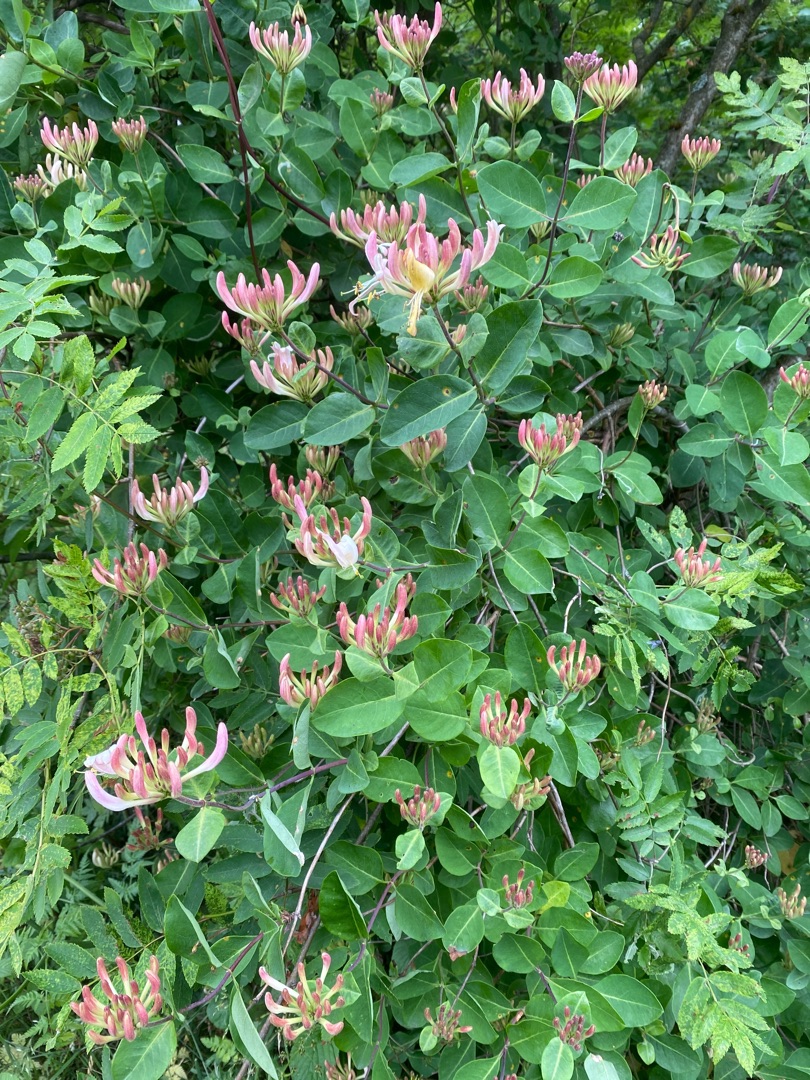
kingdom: Plantae
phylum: Tracheophyta
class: Magnoliopsida
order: Dipsacales
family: Caprifoliaceae
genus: Lonicera
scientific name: Lonicera periclymenum
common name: Almindelig gedeblad
